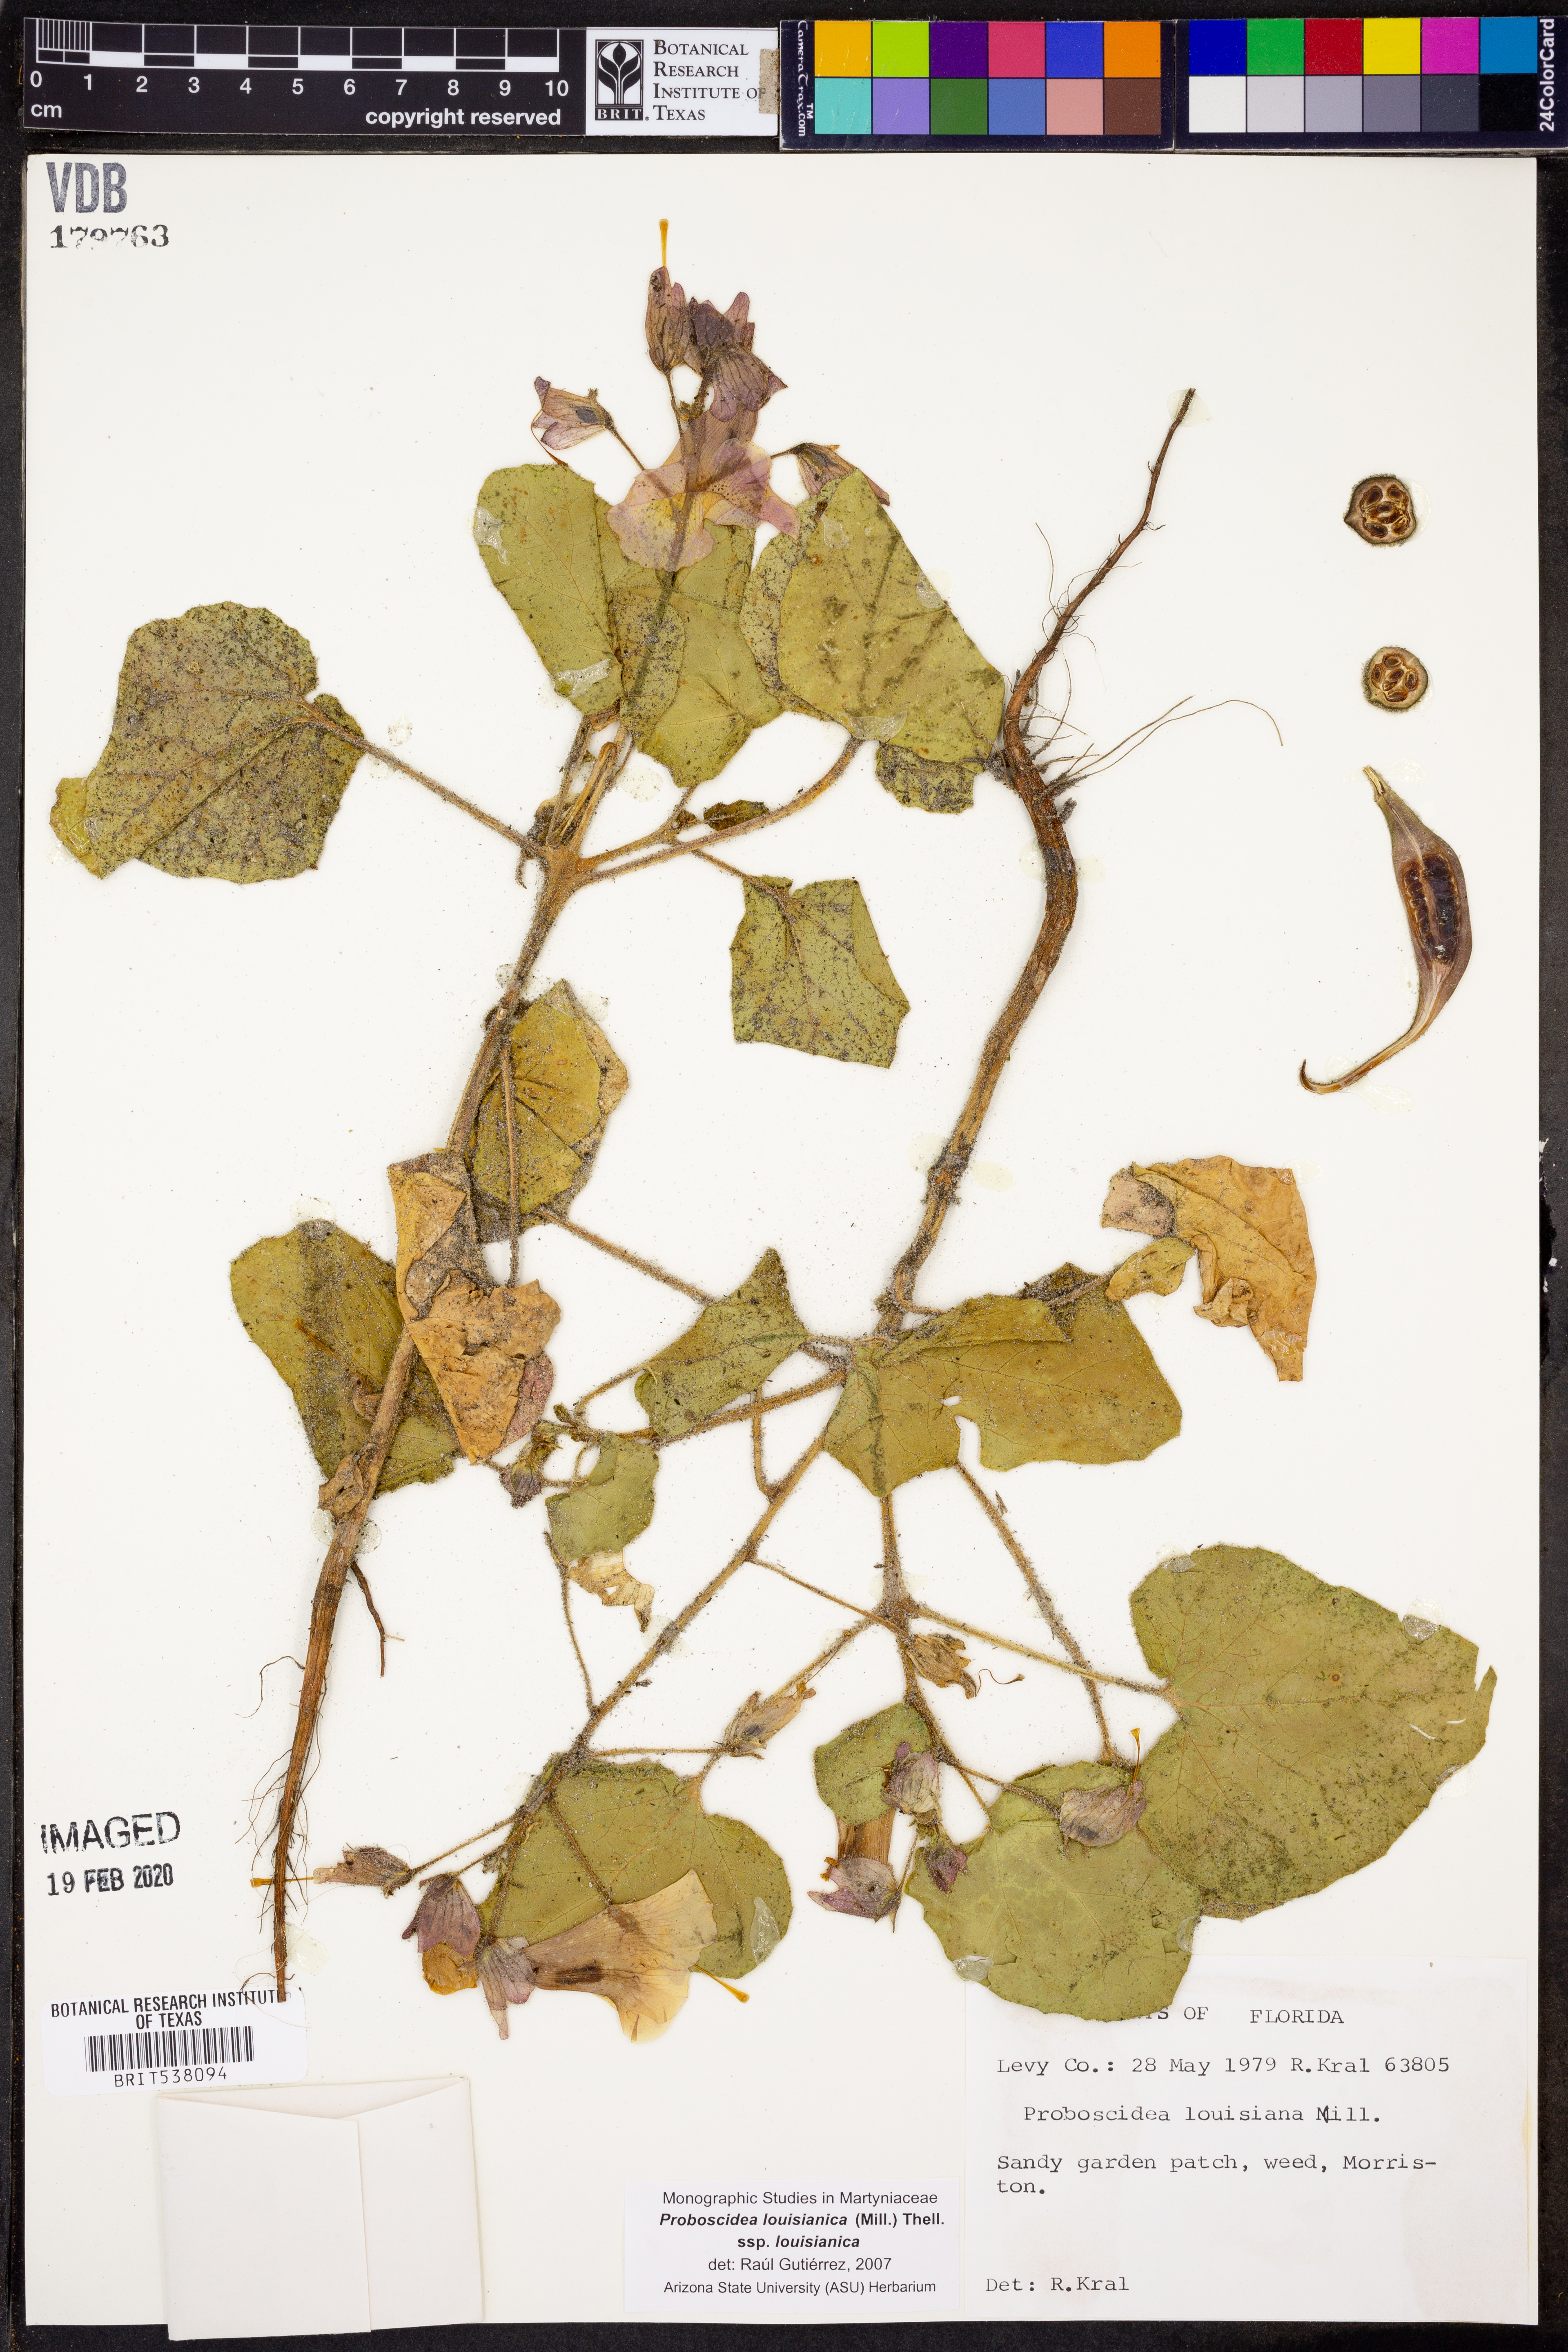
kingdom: Plantae
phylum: Tracheophyta
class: Magnoliopsida
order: Lamiales
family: Martyniaceae
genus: Proboscidea
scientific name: Proboscidea louisianica
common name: Elephant tusks
